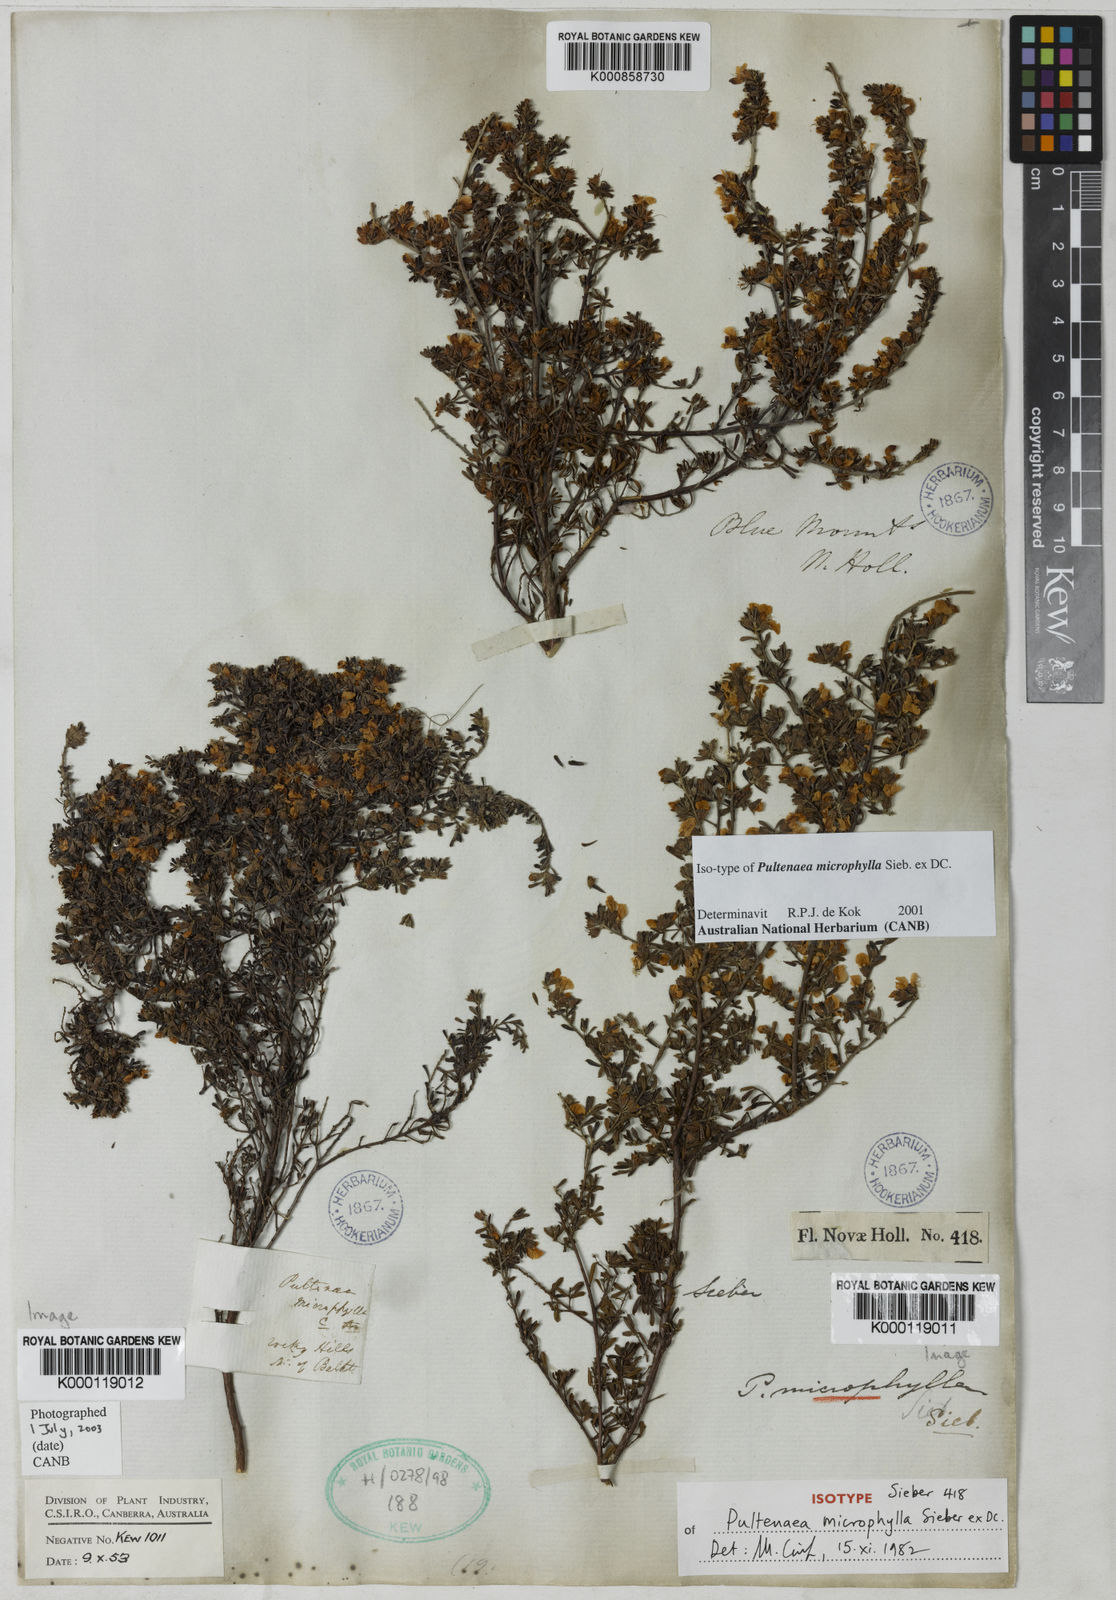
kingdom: Plantae
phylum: Tracheophyta
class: Magnoliopsida
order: Fabales
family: Fabaceae
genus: Pultenaea
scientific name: Pultenaea microphylla
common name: Spreading bush-pea
